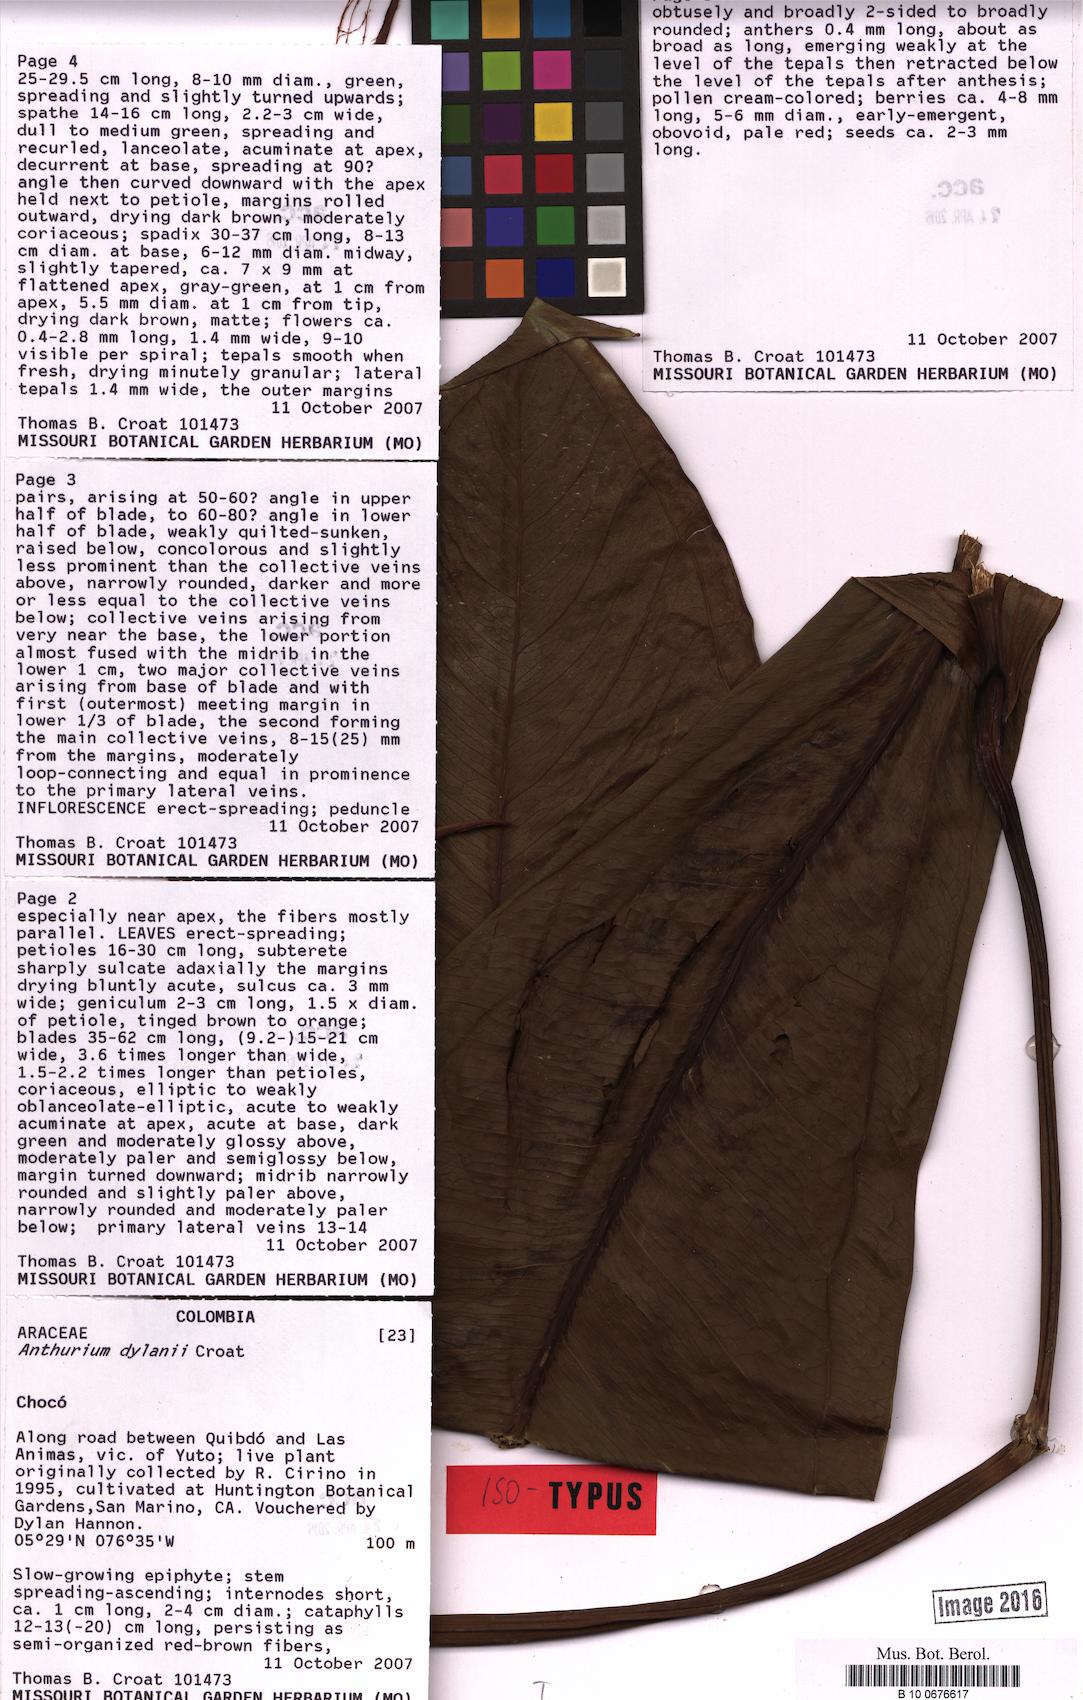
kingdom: Plantae
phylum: Tracheophyta
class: Liliopsida
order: Alismatales
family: Araceae
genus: Anthurium
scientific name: Anthurium dylanii
